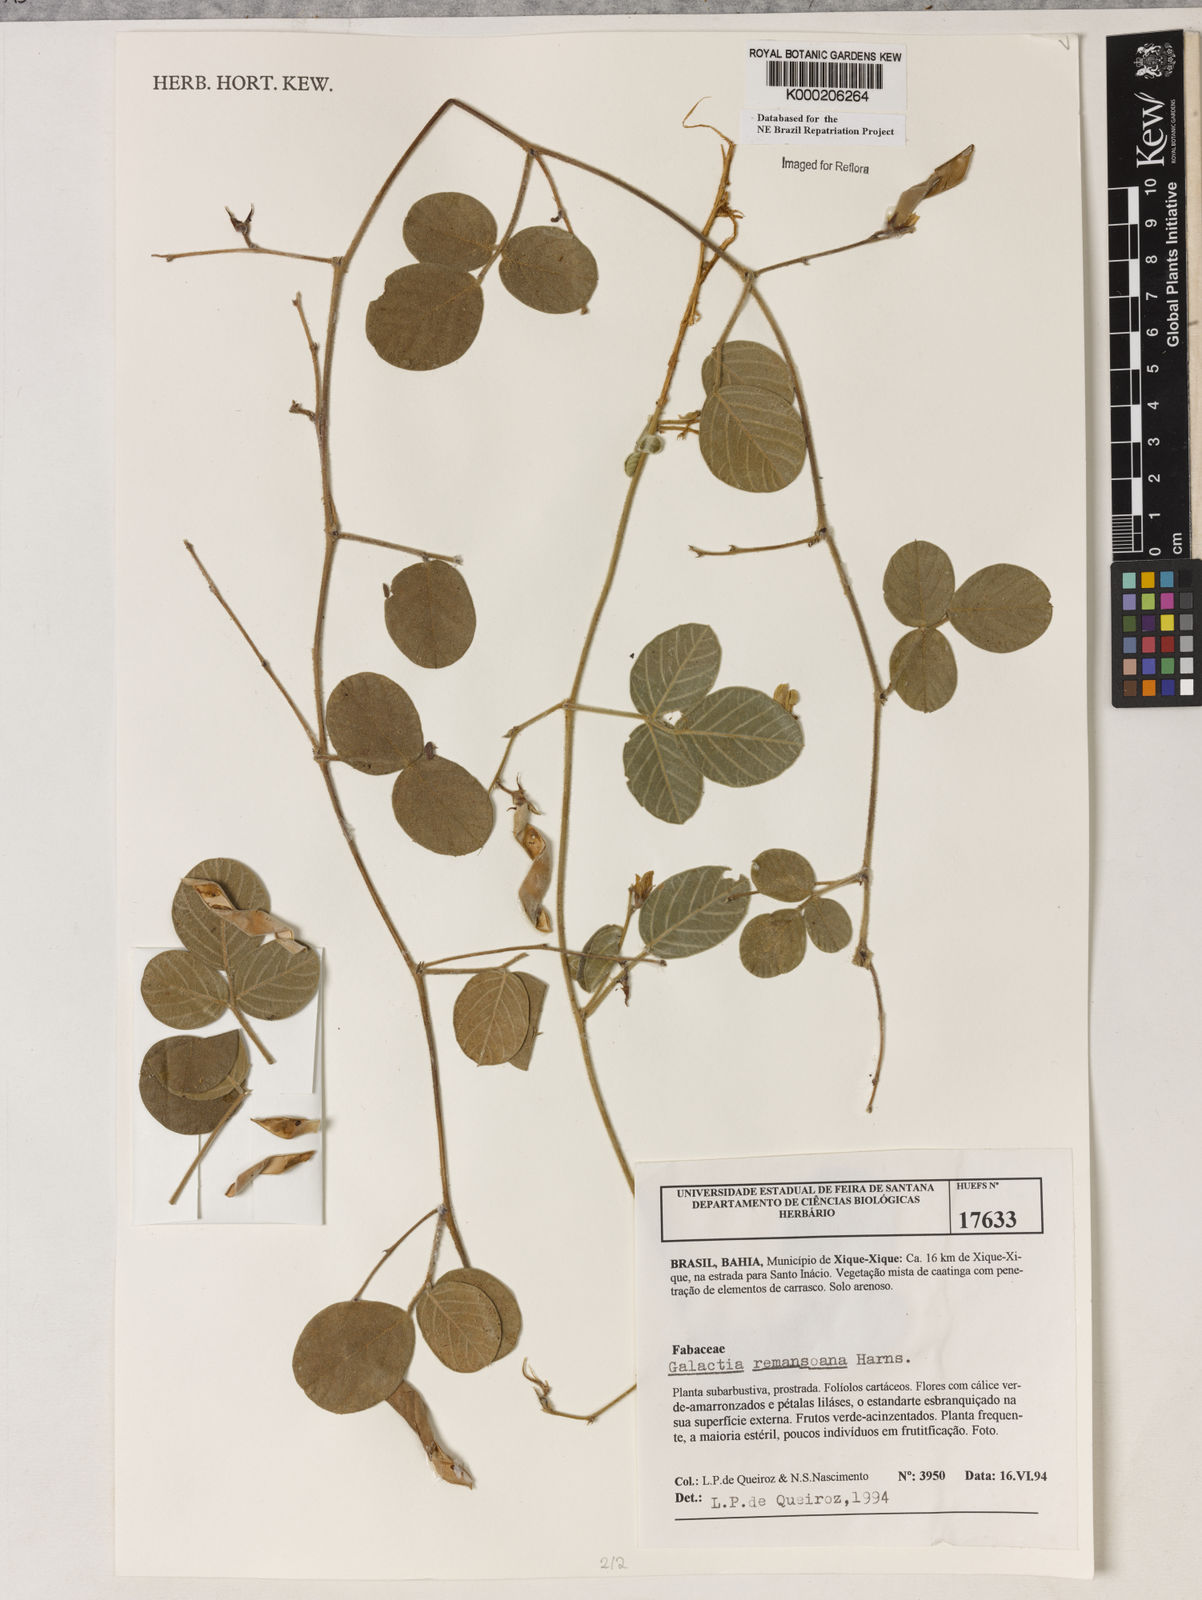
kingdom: Plantae
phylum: Tracheophyta
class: Magnoliopsida
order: Fabales
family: Fabaceae
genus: Galactia
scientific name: Galactia remansoana
